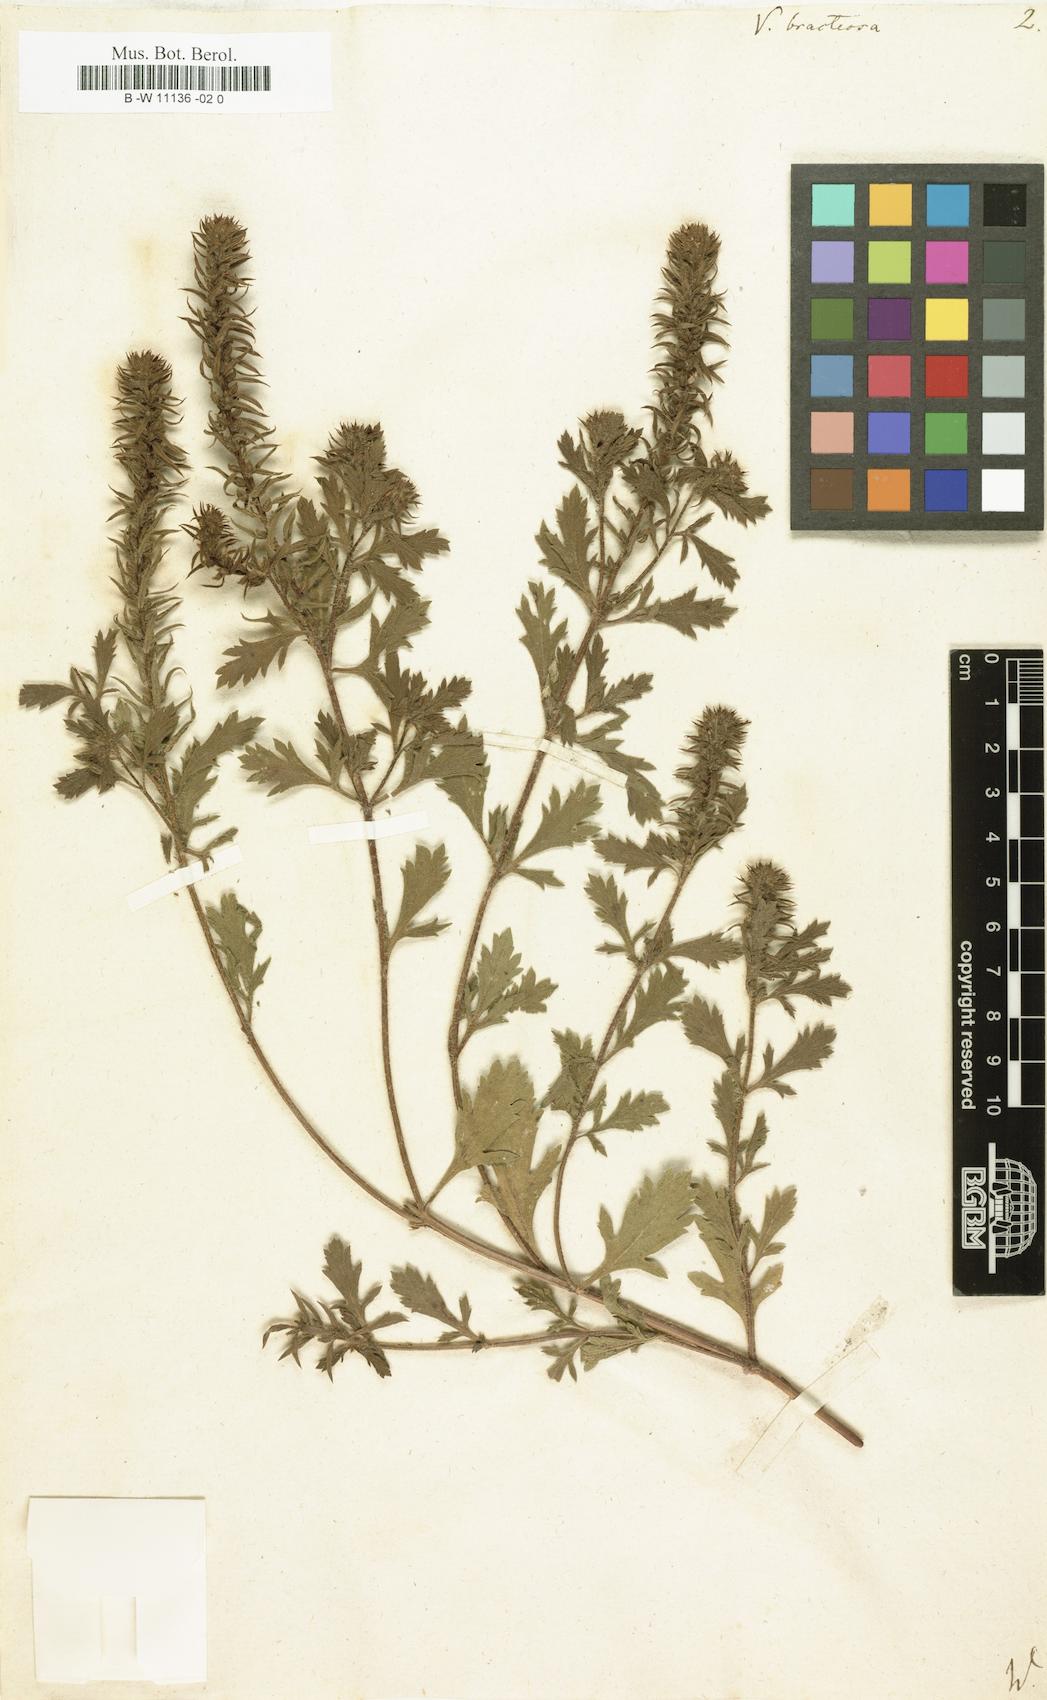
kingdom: Plantae
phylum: Tracheophyta
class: Magnoliopsida
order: Lamiales
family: Verbenaceae
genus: Verbena
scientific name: Verbena bracteata
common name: Bracted vervain
